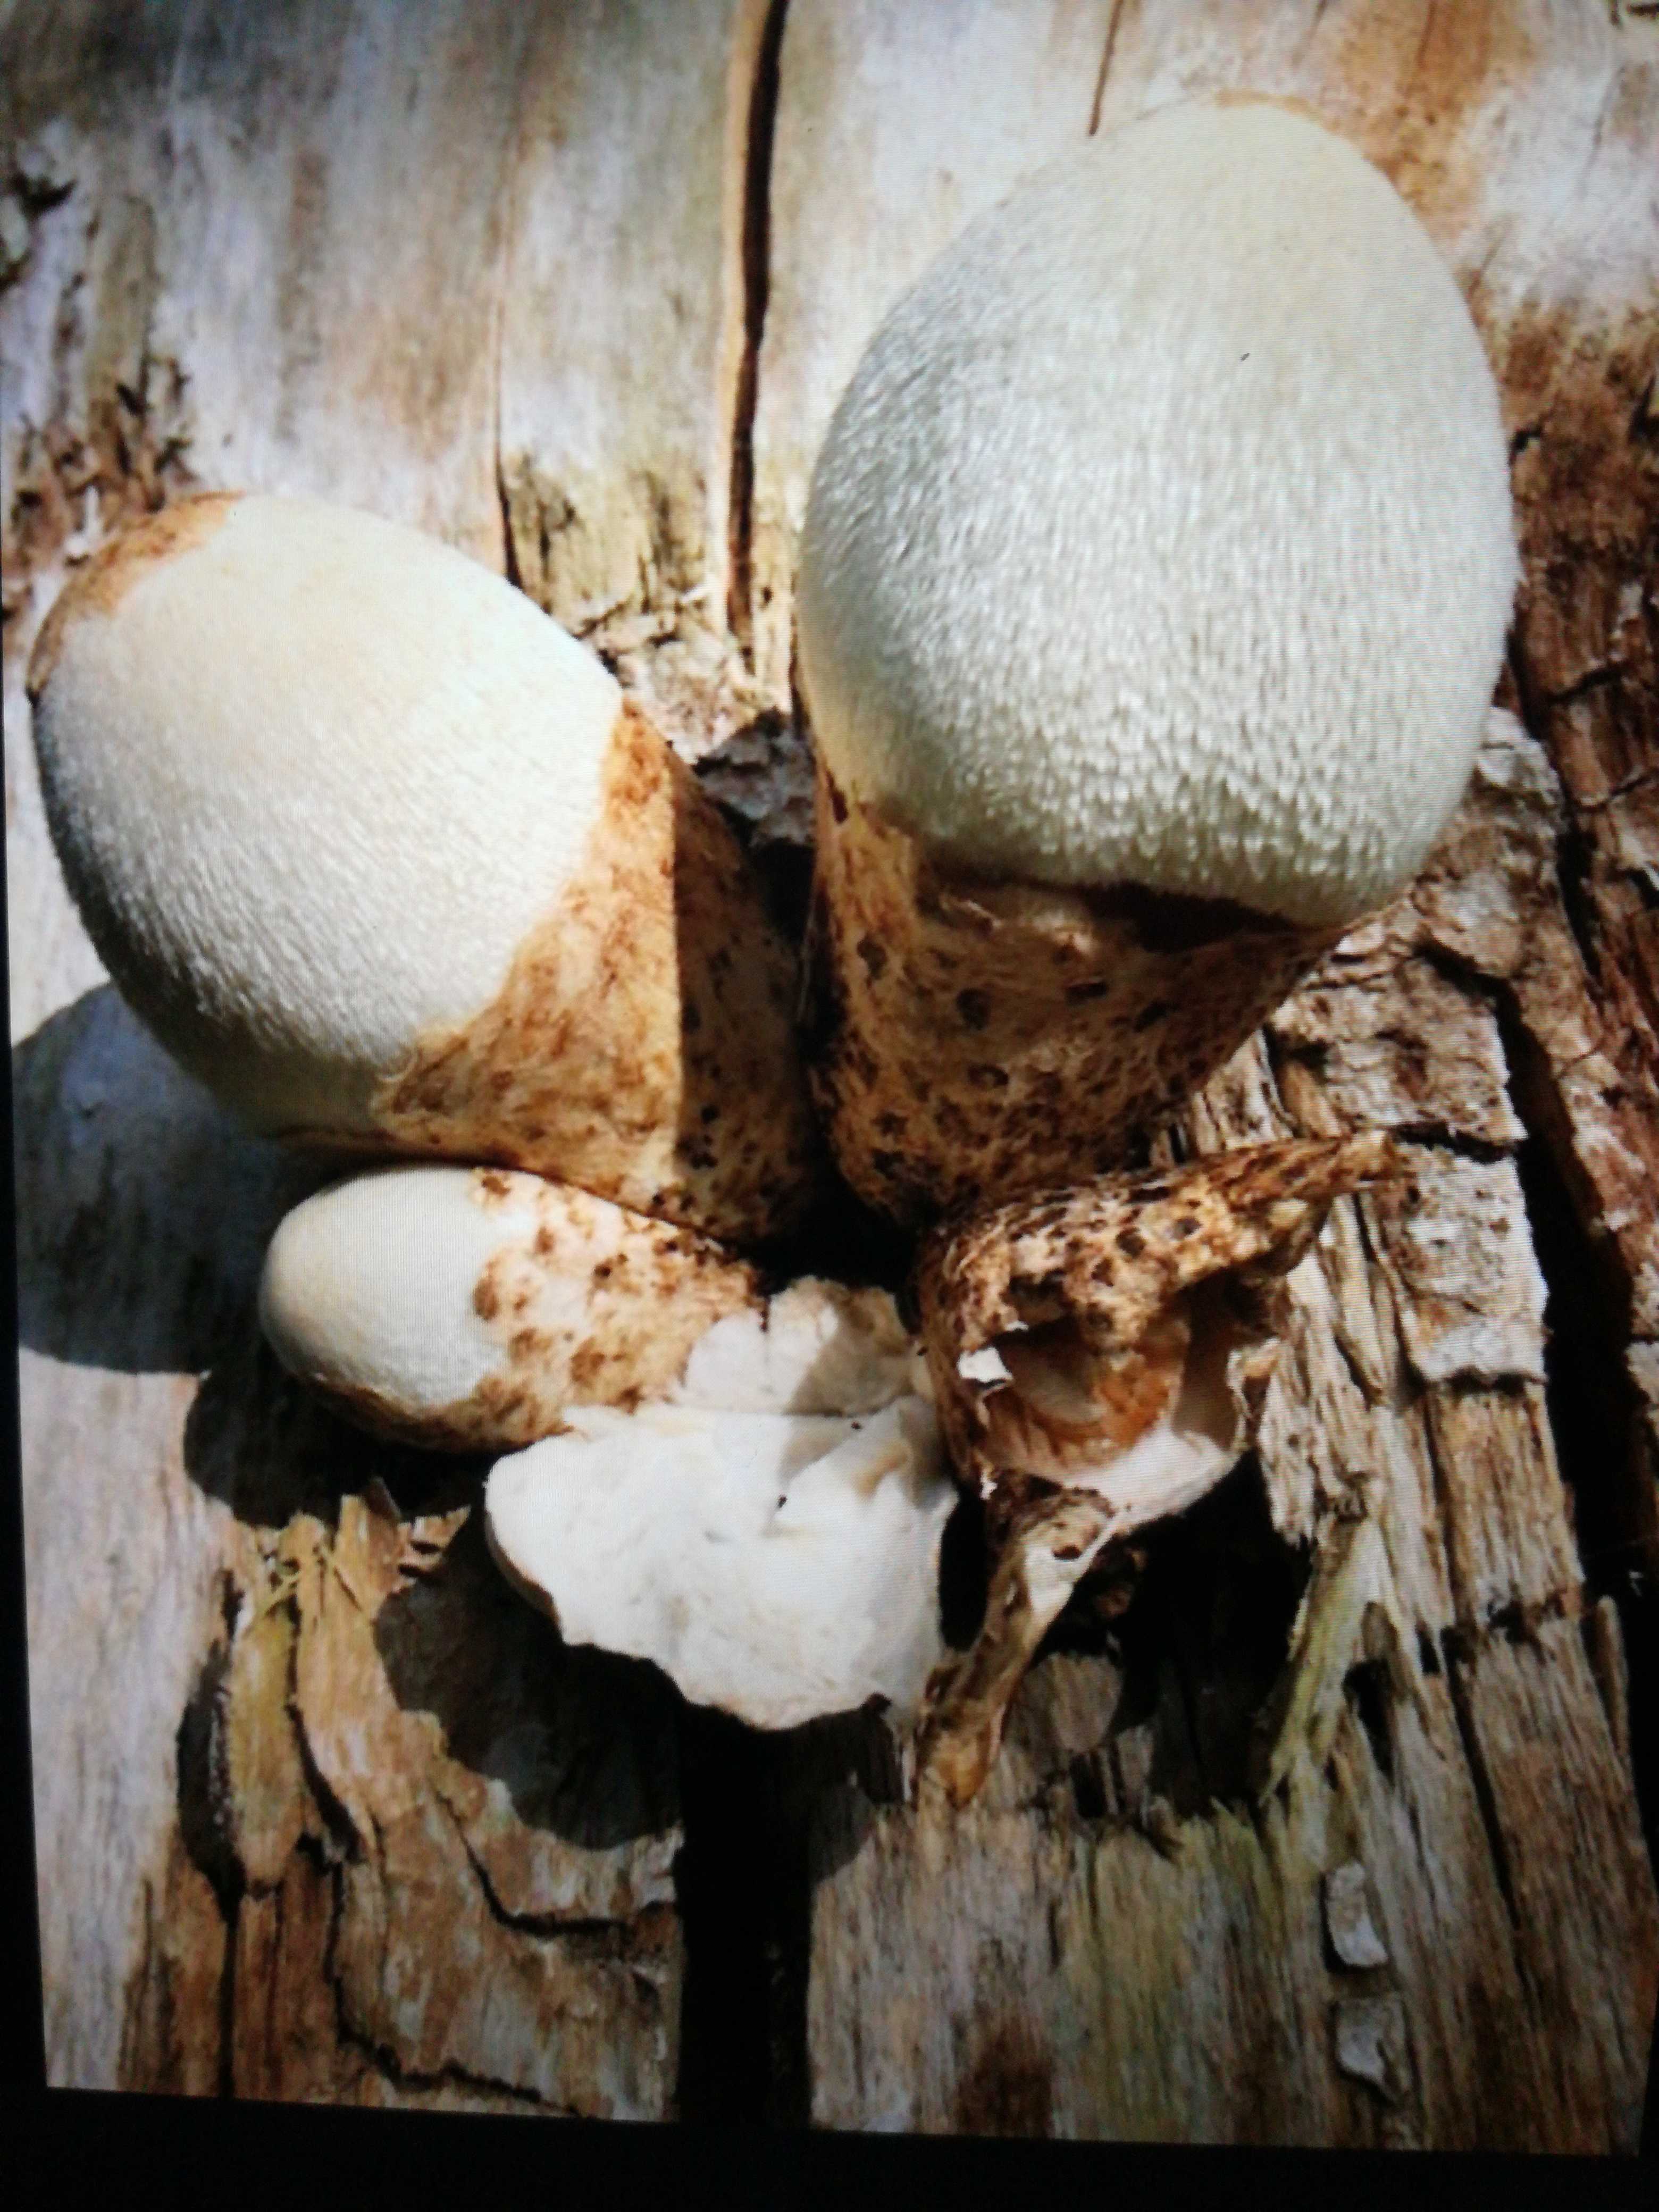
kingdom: Fungi
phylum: Basidiomycota
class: Agaricomycetes
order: Agaricales
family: Pluteaceae
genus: Volvariella
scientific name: Volvariella bombycina
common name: silkehåret posesvamp
